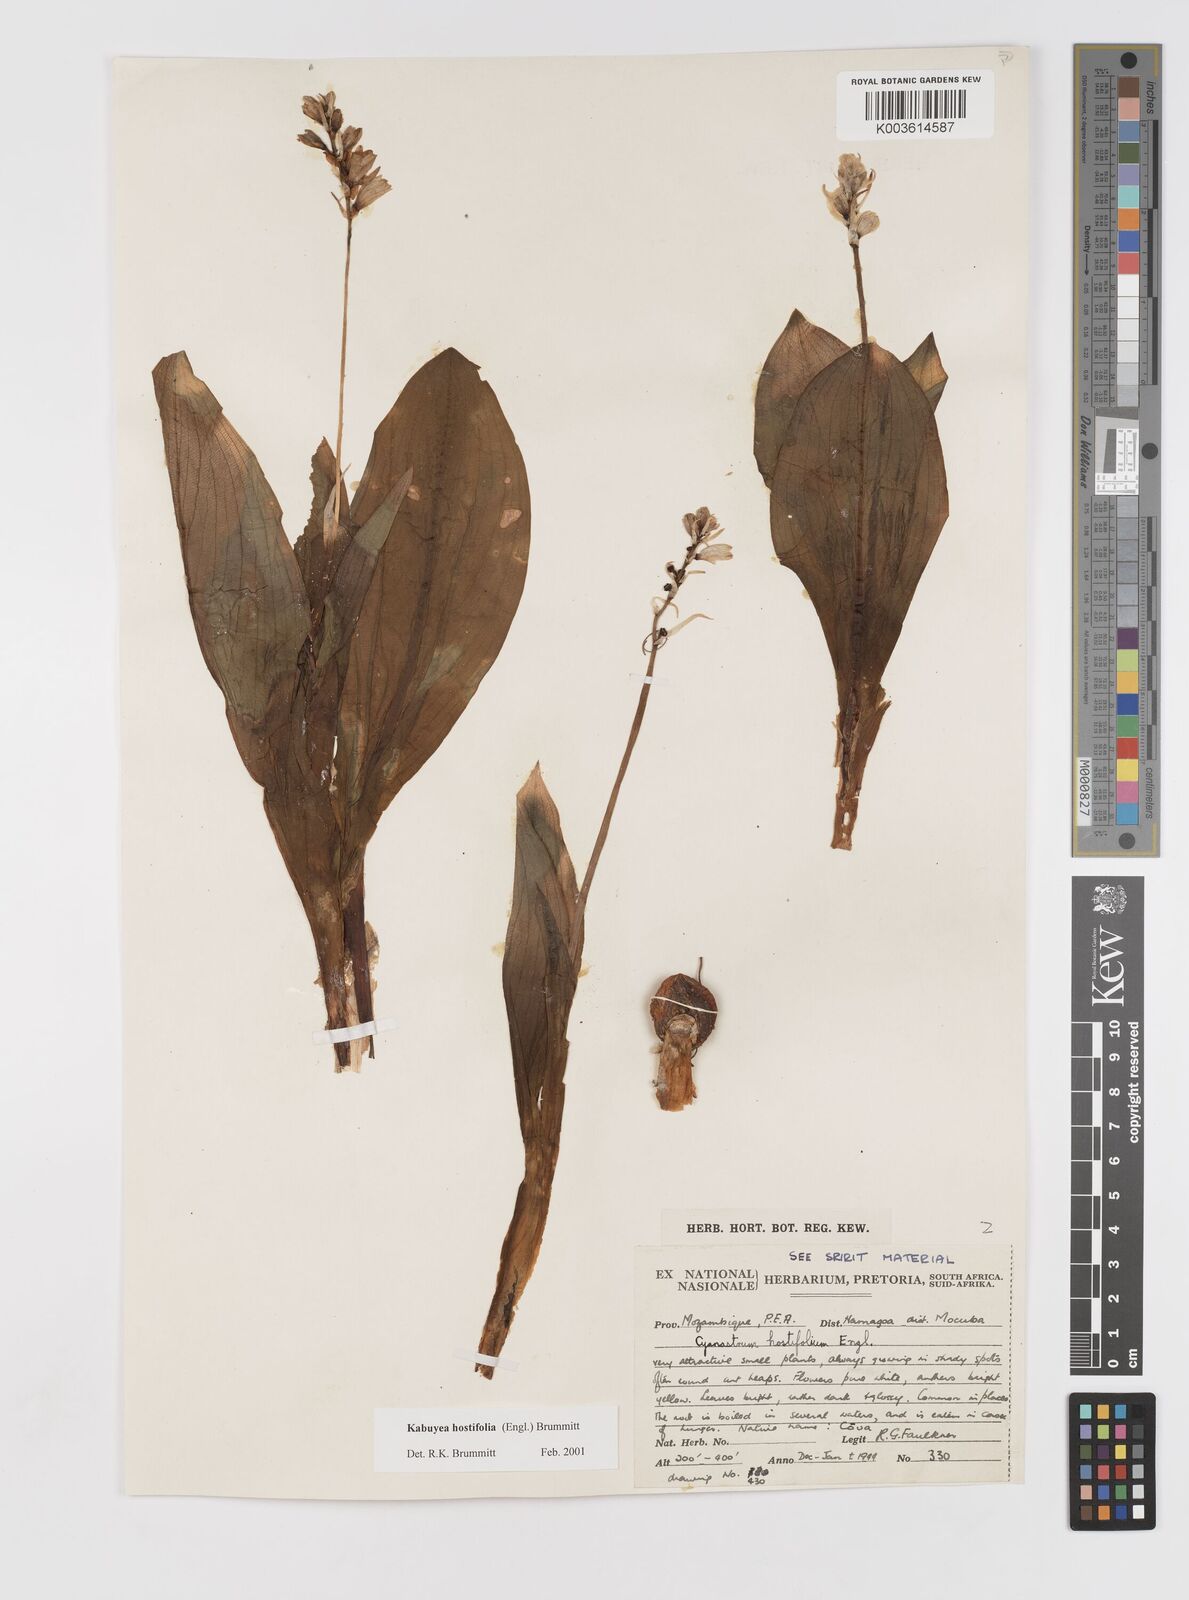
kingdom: Plantae
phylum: Tracheophyta
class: Liliopsida
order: Asparagales
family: Tecophilaeaceae
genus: Kabuyea
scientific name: Kabuyea hostifolia
